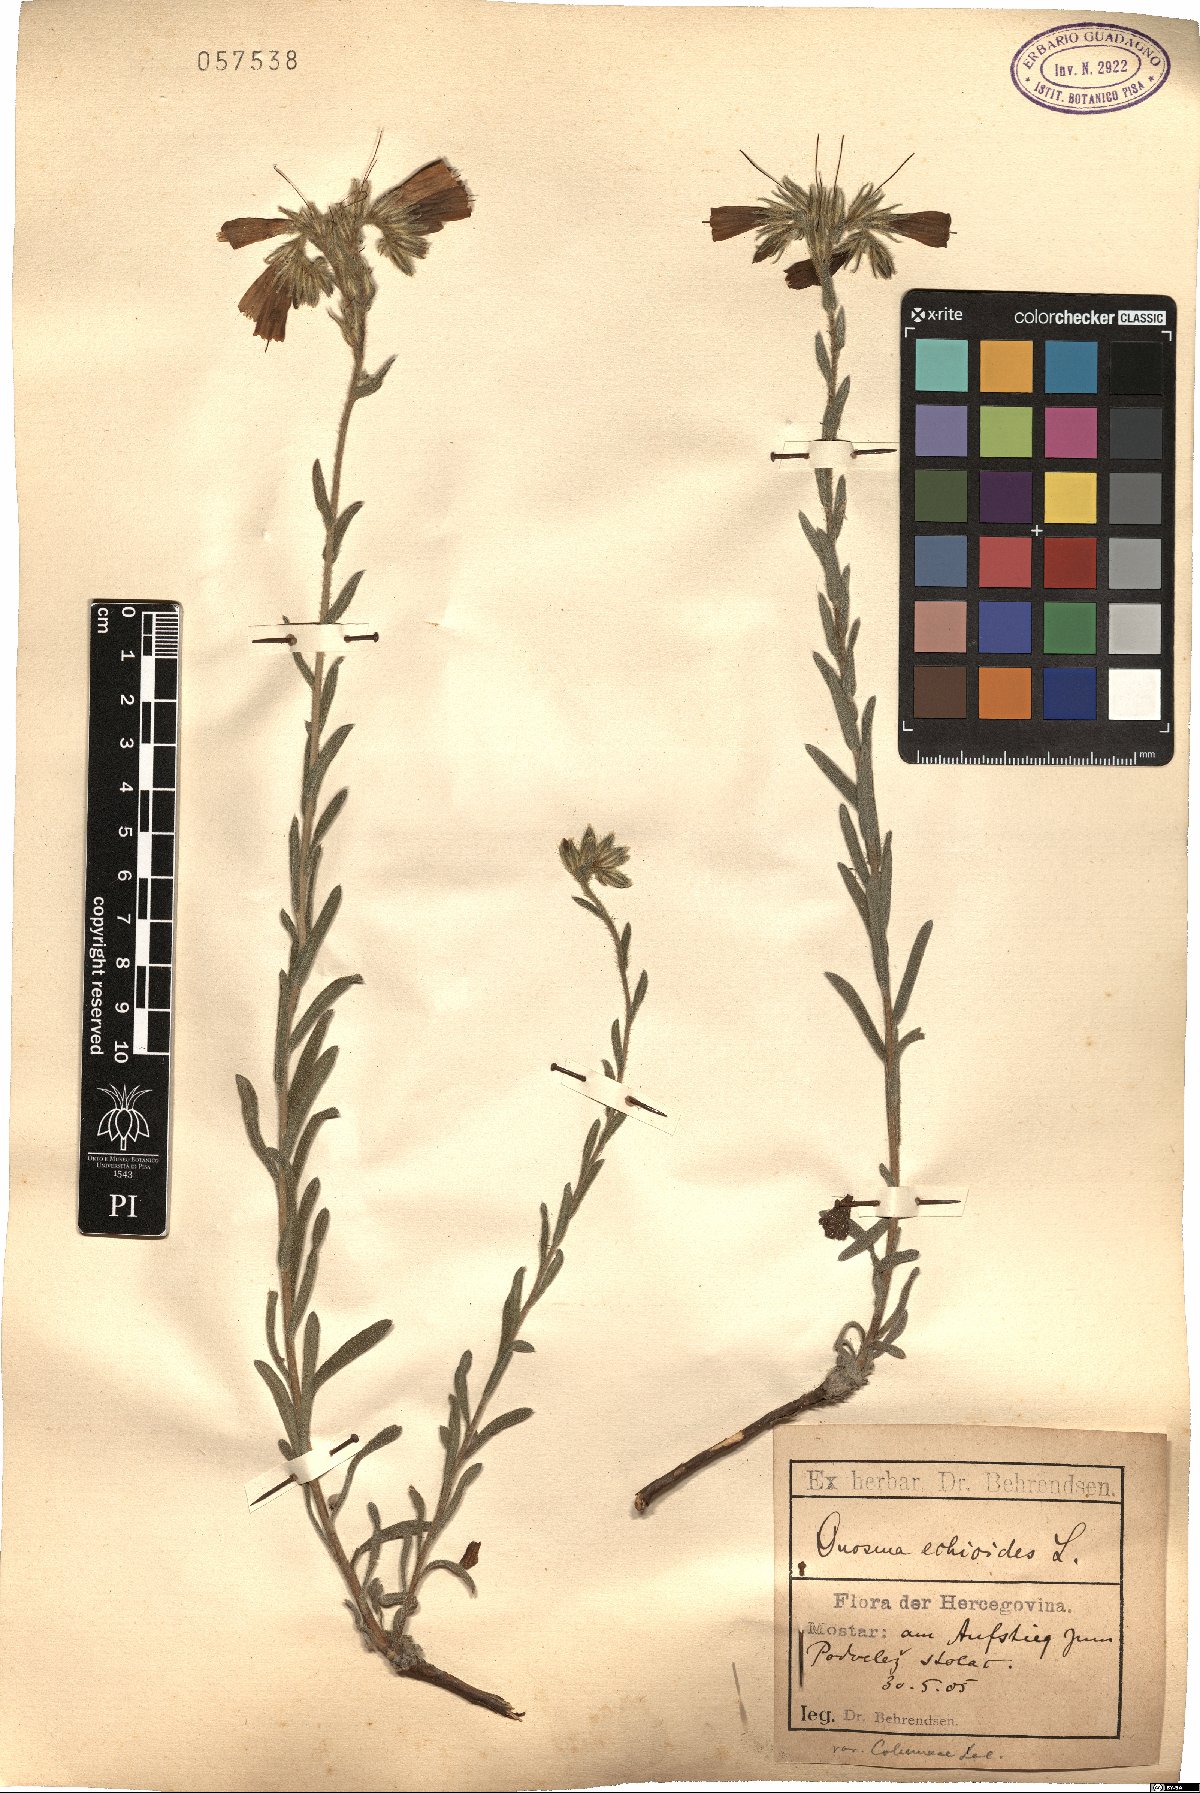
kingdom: Plantae
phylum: Tracheophyta
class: Magnoliopsida
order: Boraginales
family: Boraginaceae
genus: Onosma
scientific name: Onosma echioides
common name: Goldendrop
